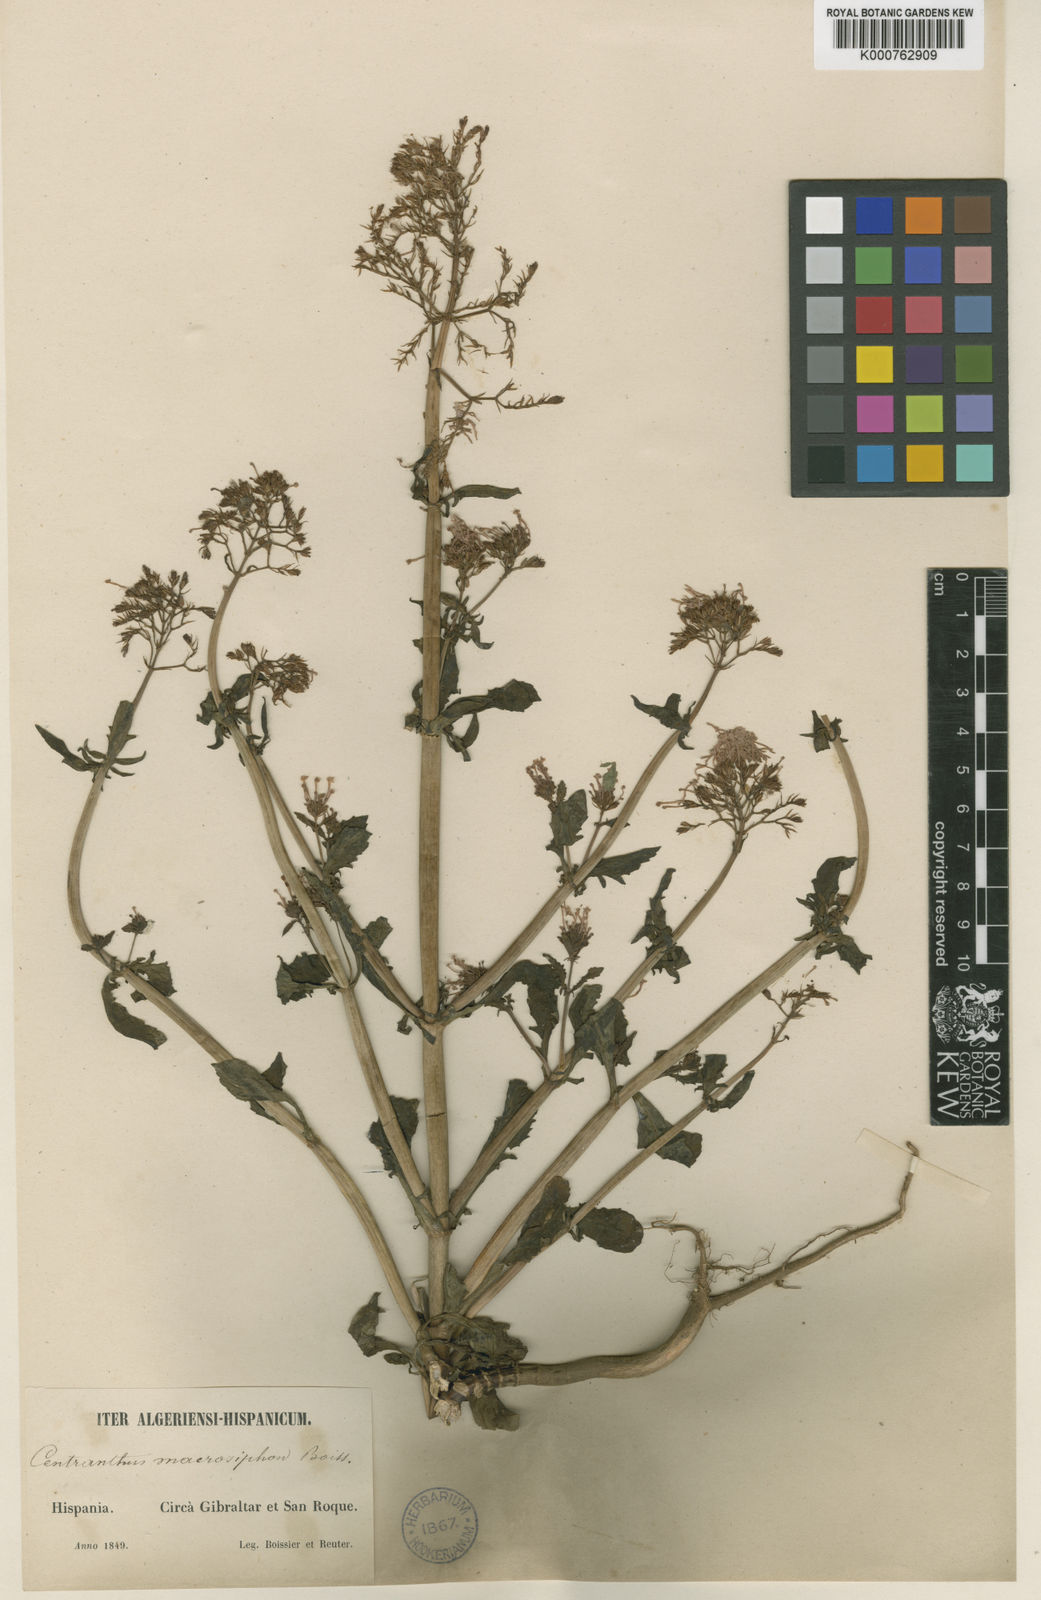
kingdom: Plantae
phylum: Tracheophyta
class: Magnoliopsida
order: Dipsacales
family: Caprifoliaceae
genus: Centranthus
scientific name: Centranthus macrosiphon
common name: Spanish-valerian
